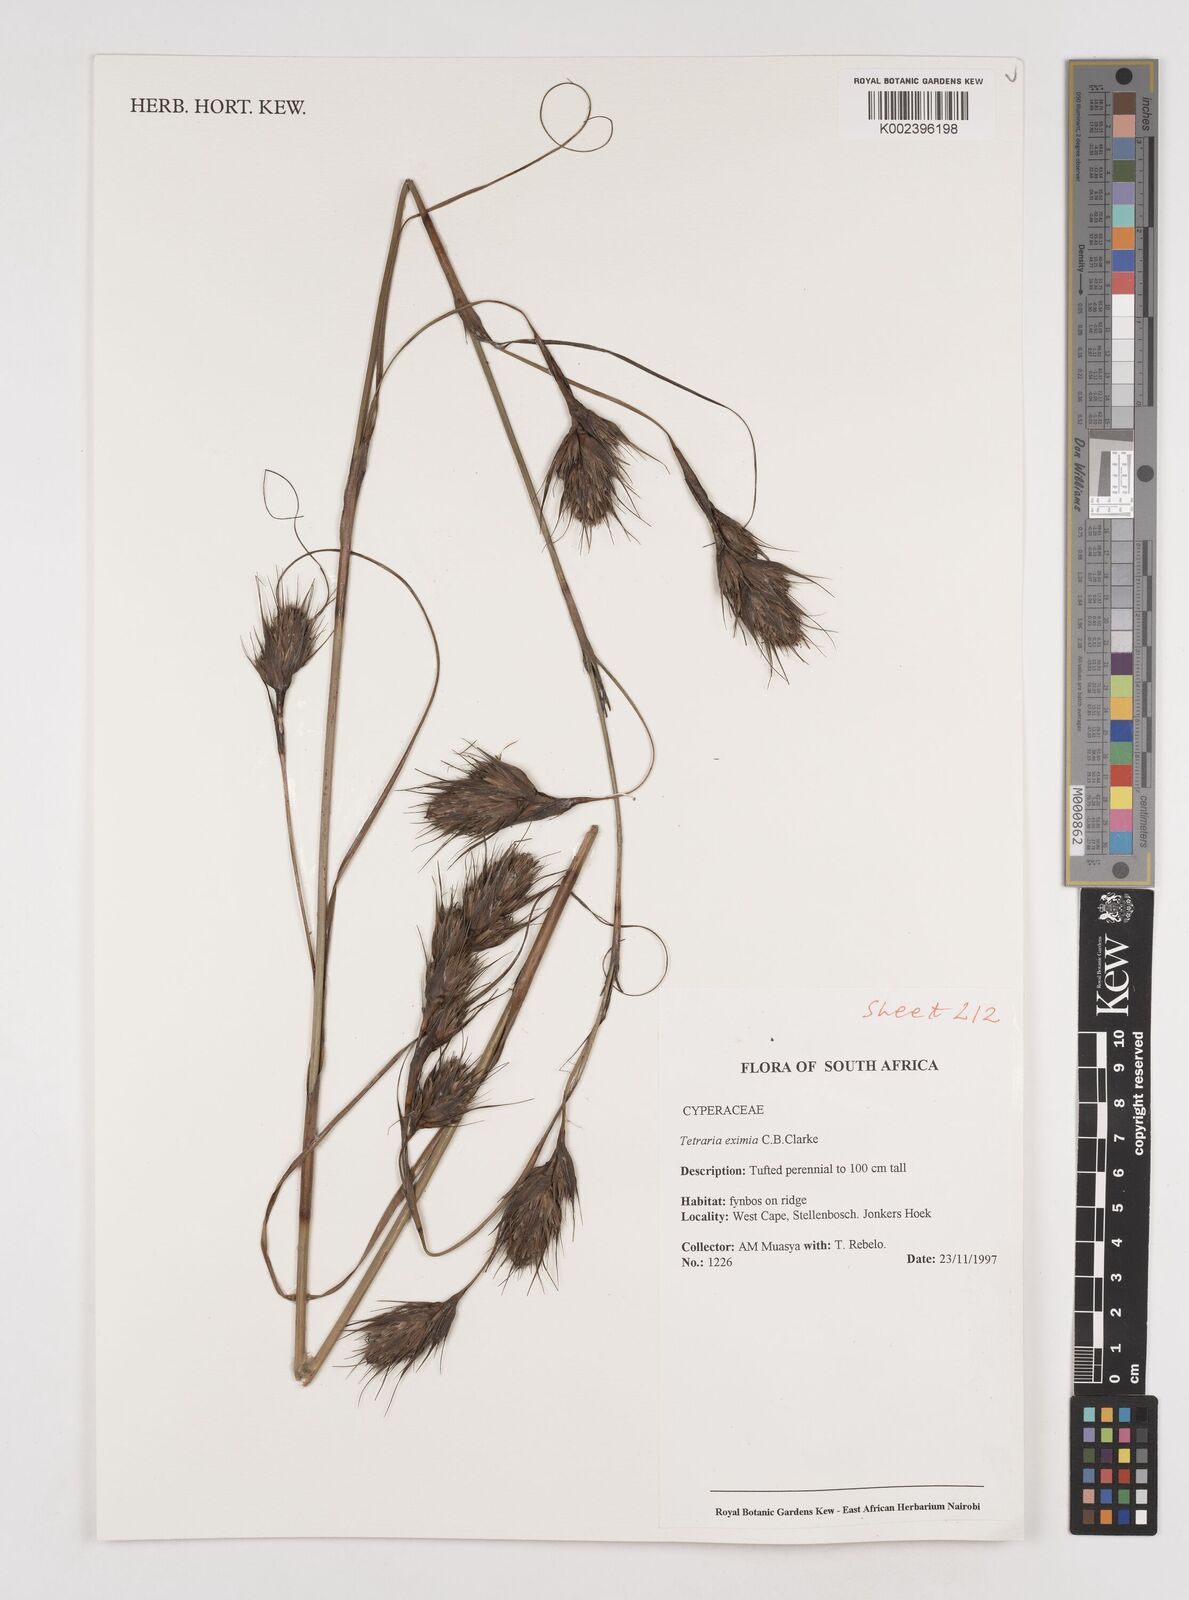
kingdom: Plantae
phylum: Tracheophyta
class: Liliopsida
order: Poales
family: Cyperaceae
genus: Tetraria
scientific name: Tetraria eximia
